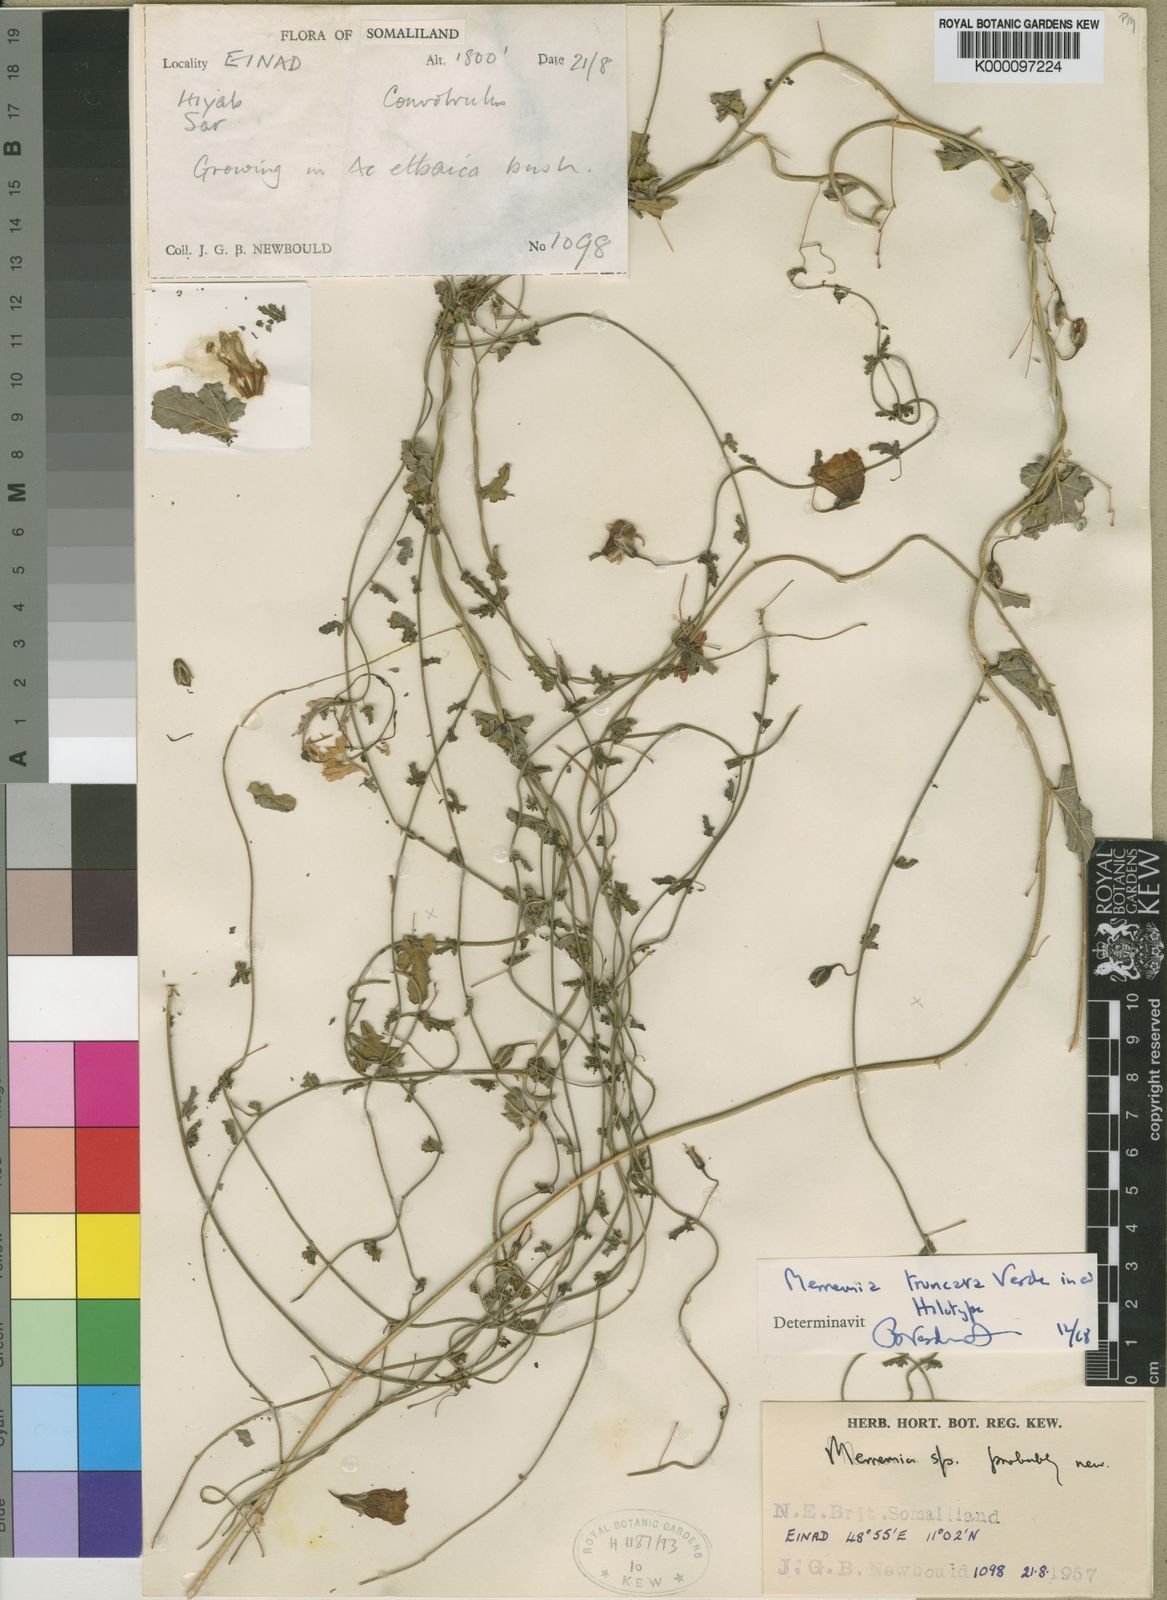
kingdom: Plantae
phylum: Tracheophyta
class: Magnoliopsida
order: Solanales
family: Convolvulaceae
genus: Merremia
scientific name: Merremia truncata
